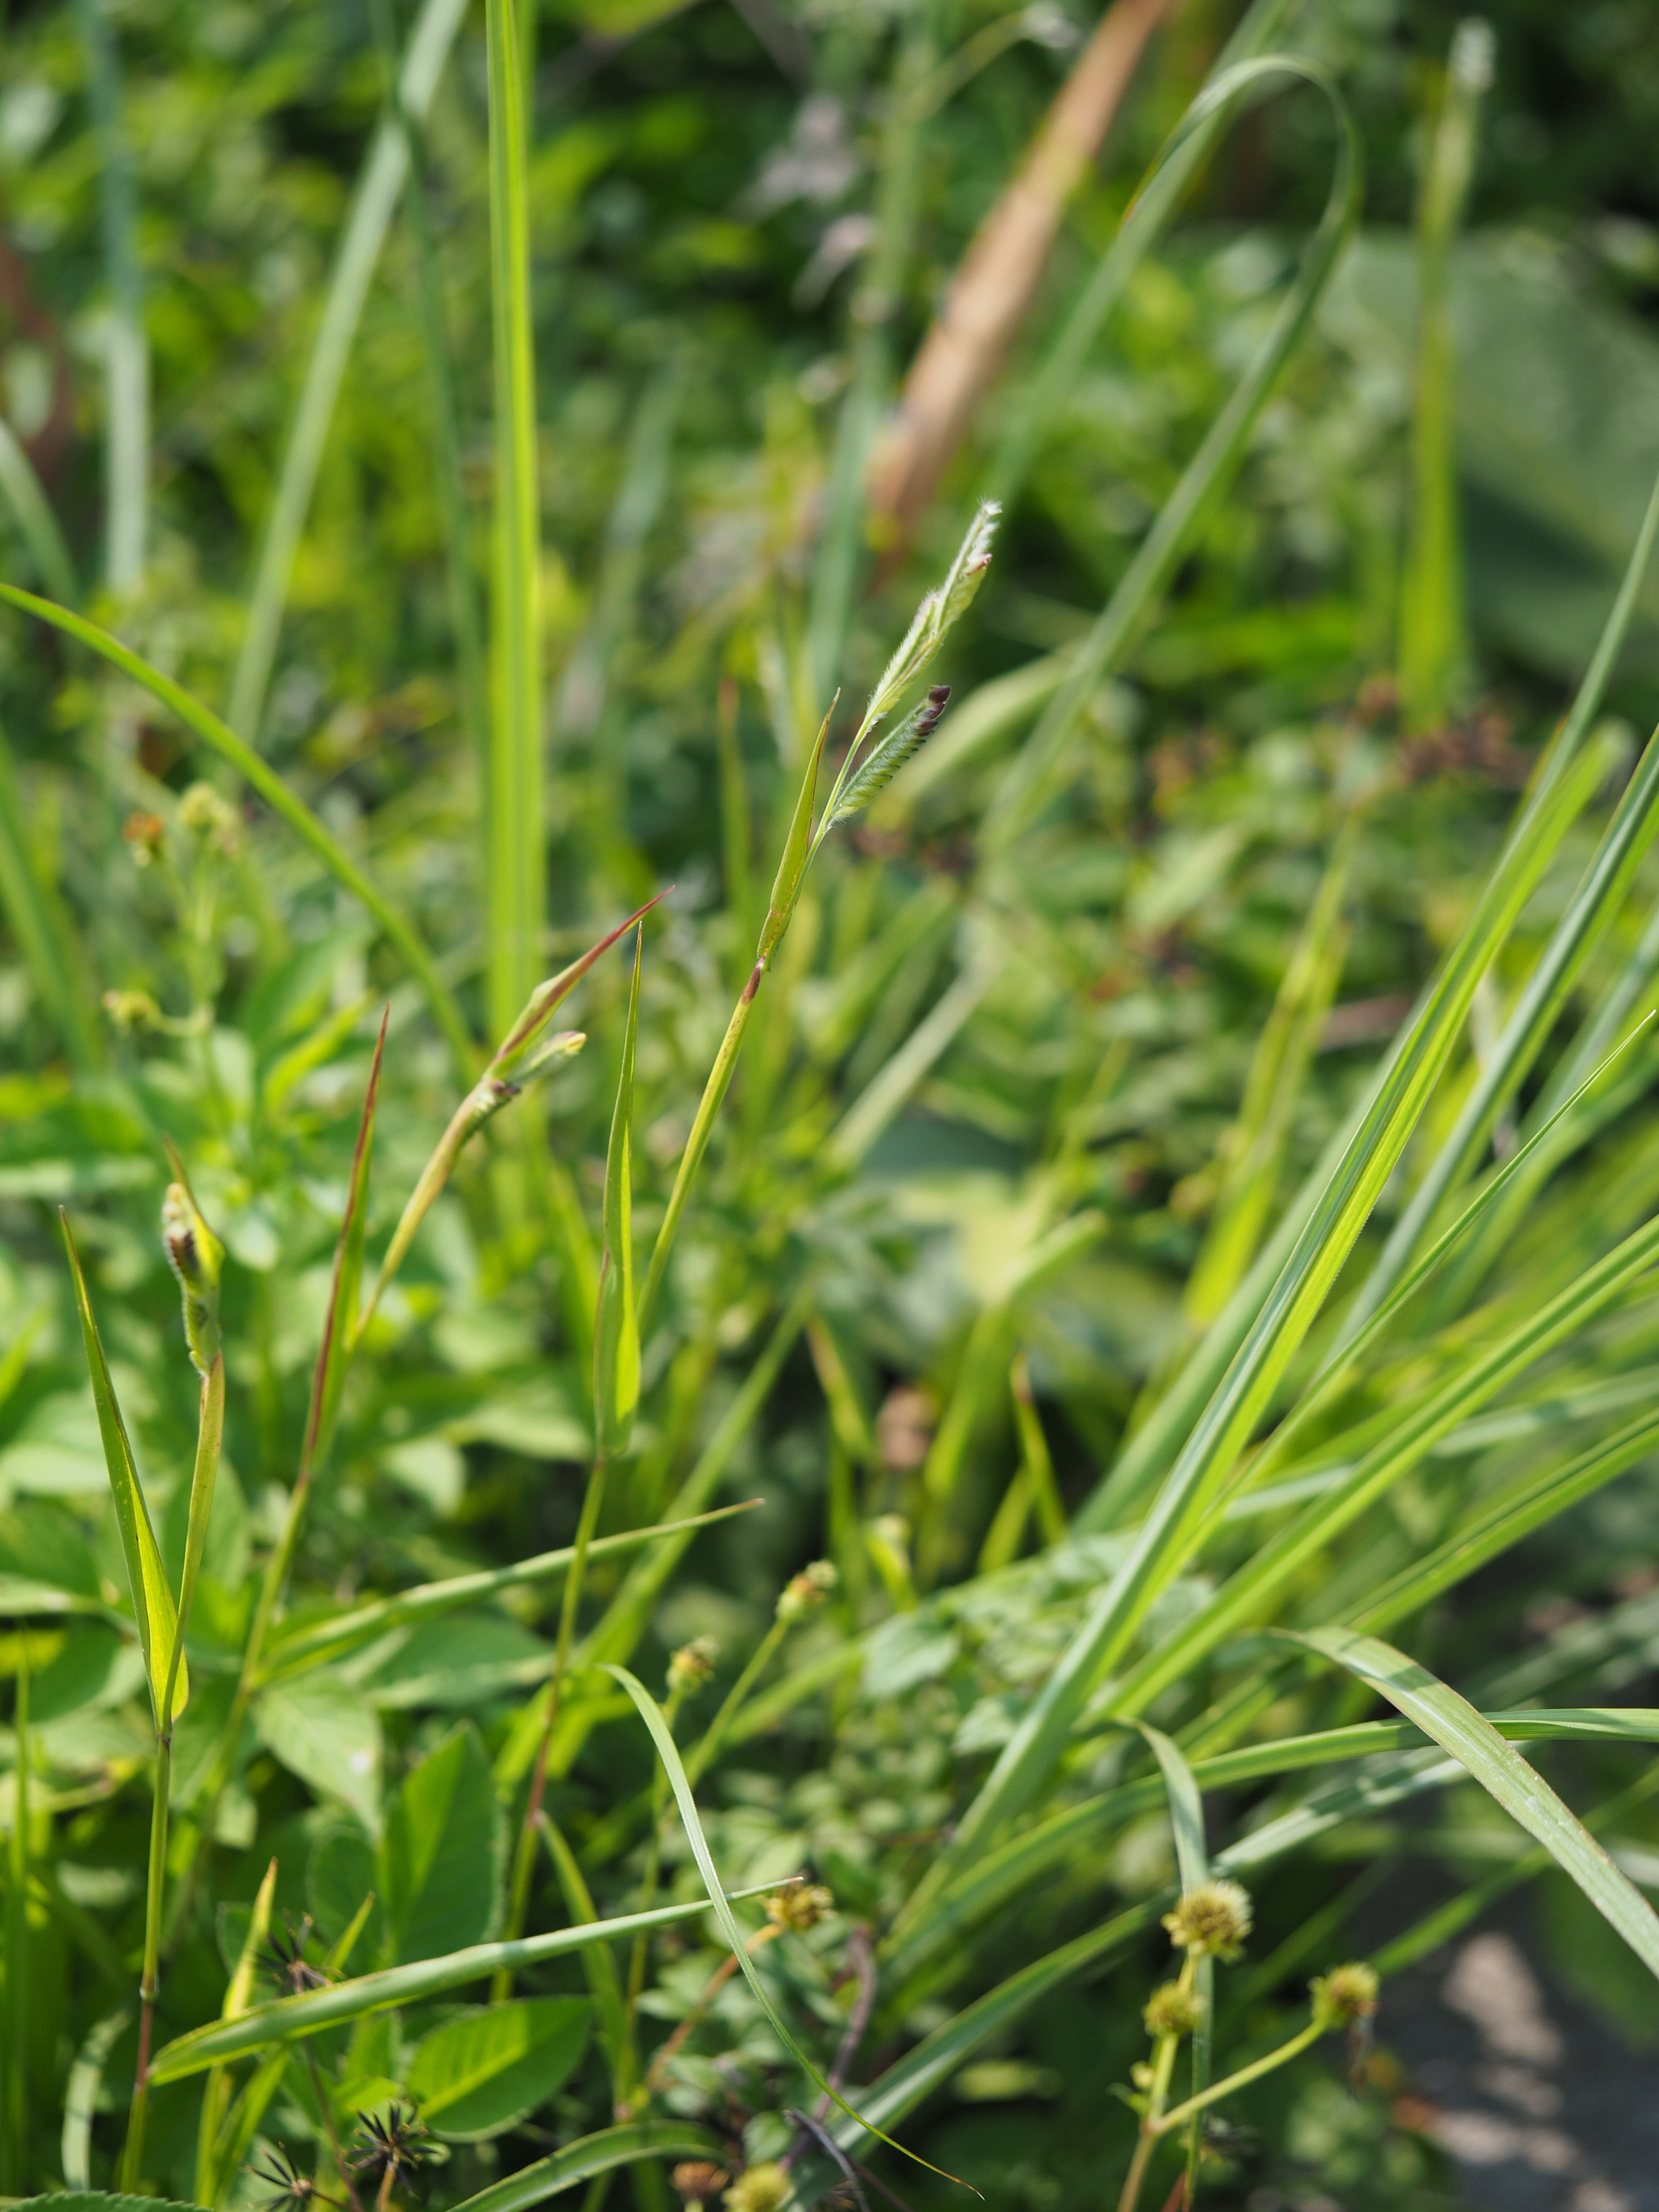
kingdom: Plantae
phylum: Tracheophyta
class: Liliopsida
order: Poales
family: Poaceae
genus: Eriochloa
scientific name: Eriochloa villosa
